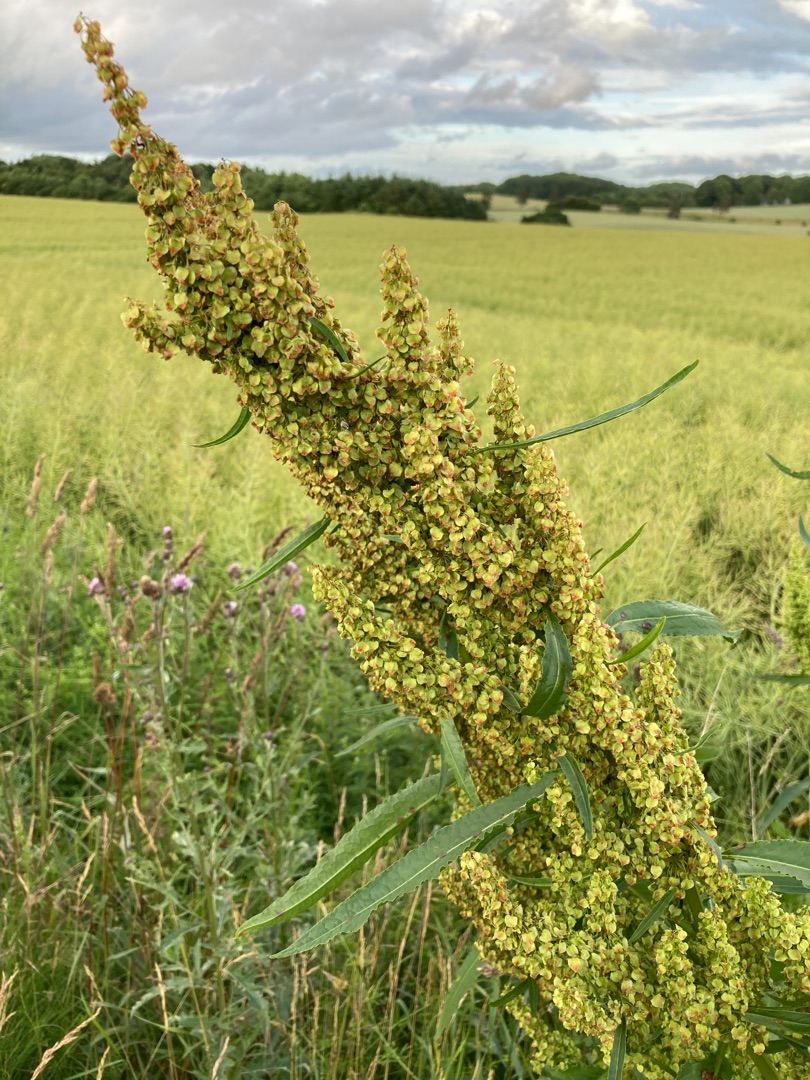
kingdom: Plantae
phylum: Tracheophyta
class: Magnoliopsida
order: Caryophyllales
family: Polygonaceae
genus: Rumex
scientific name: Rumex crispus
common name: Kruset skræppe
